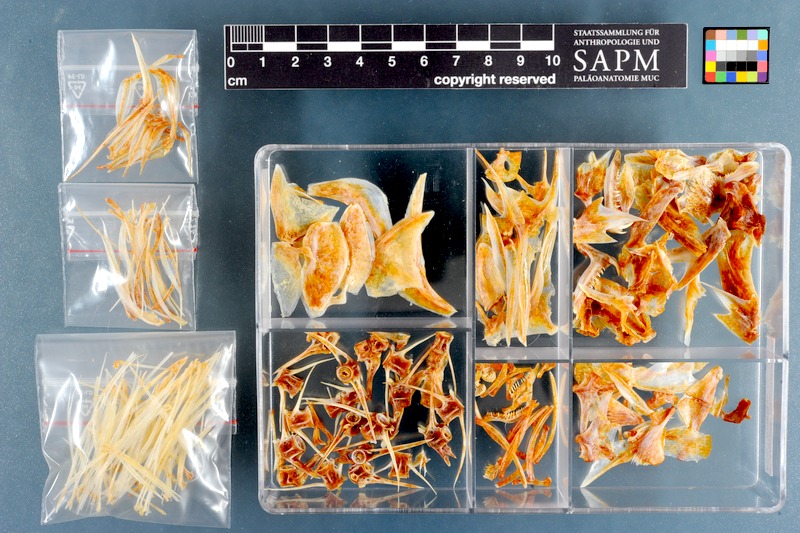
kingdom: Animalia
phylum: Chordata
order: Perciformes
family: Sparidae
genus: Argyrozona
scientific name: Argyrozona argyrozona
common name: Carpenter
